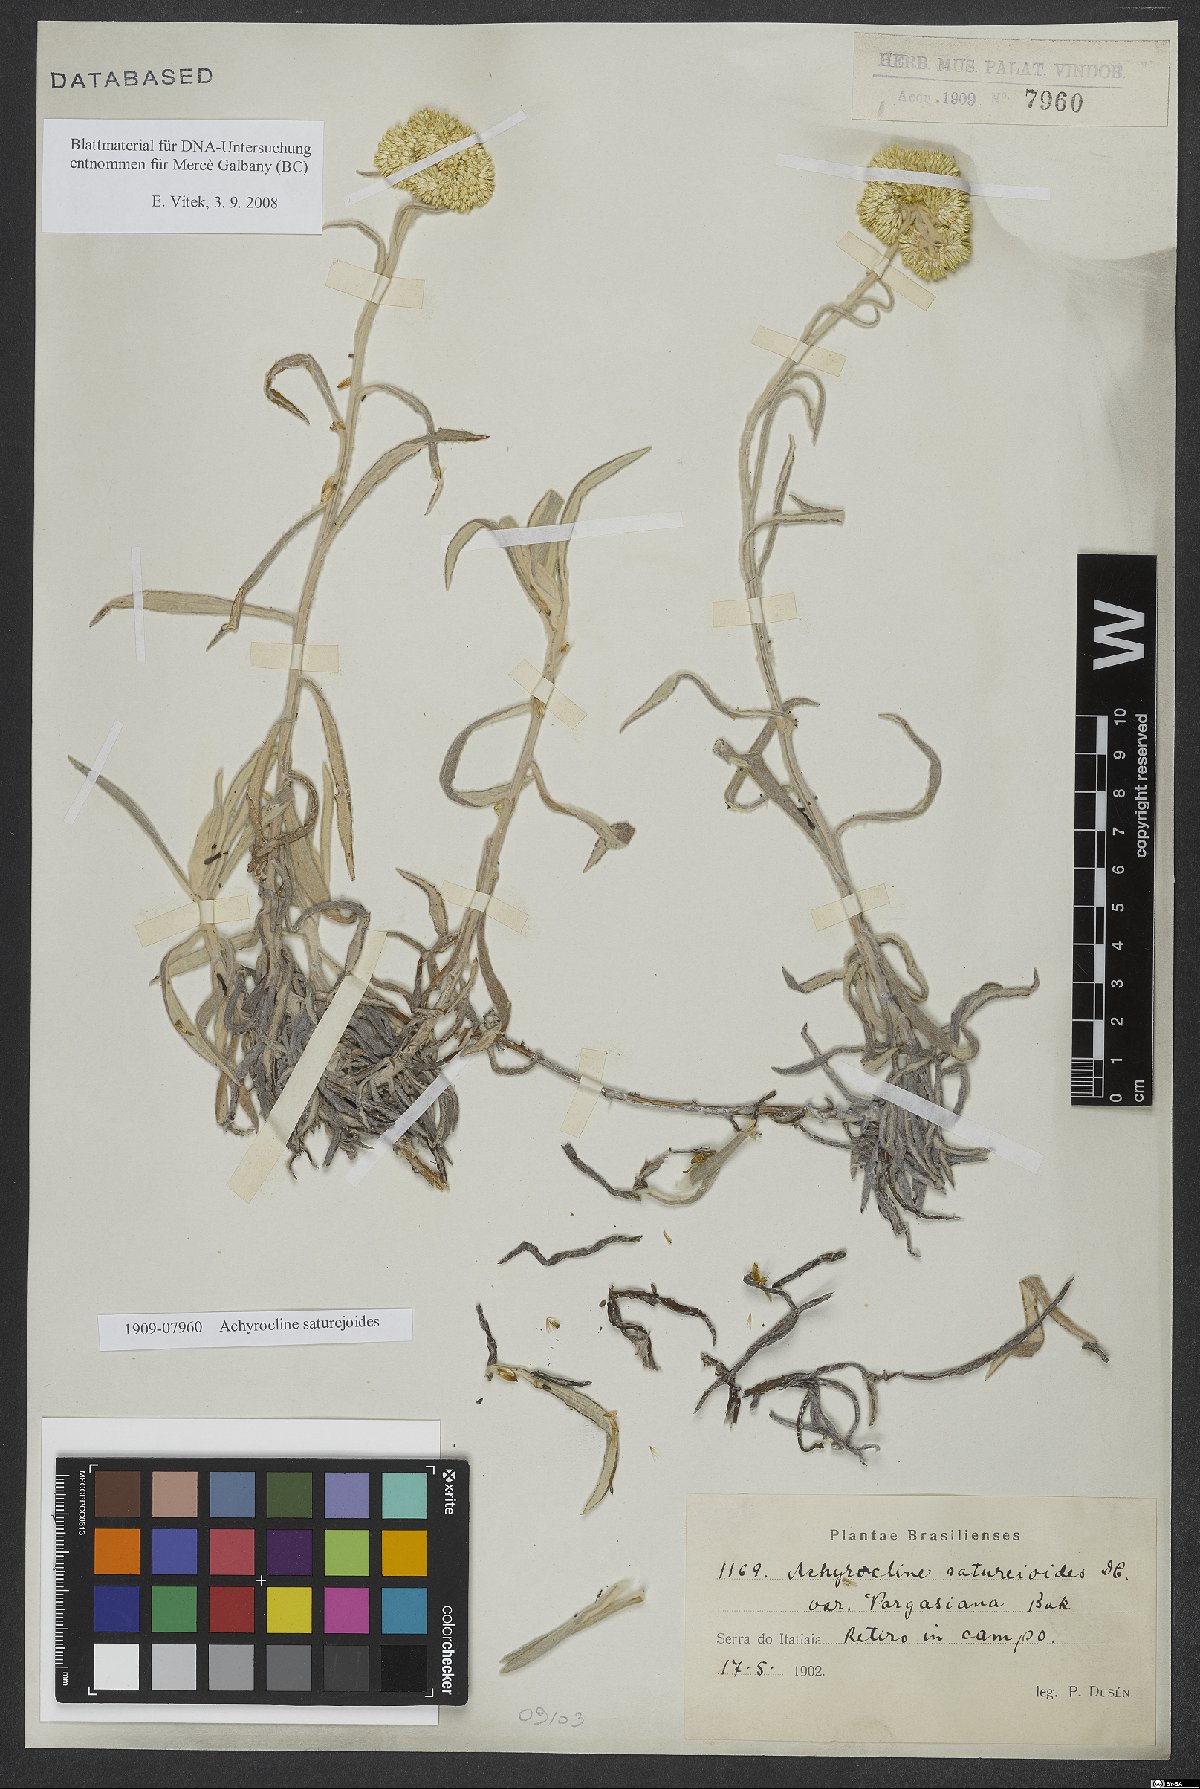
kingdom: Plantae
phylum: Tracheophyta
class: Magnoliopsida
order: Asterales
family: Asteraceae
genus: Achyrocline
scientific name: Achyrocline satureioides
